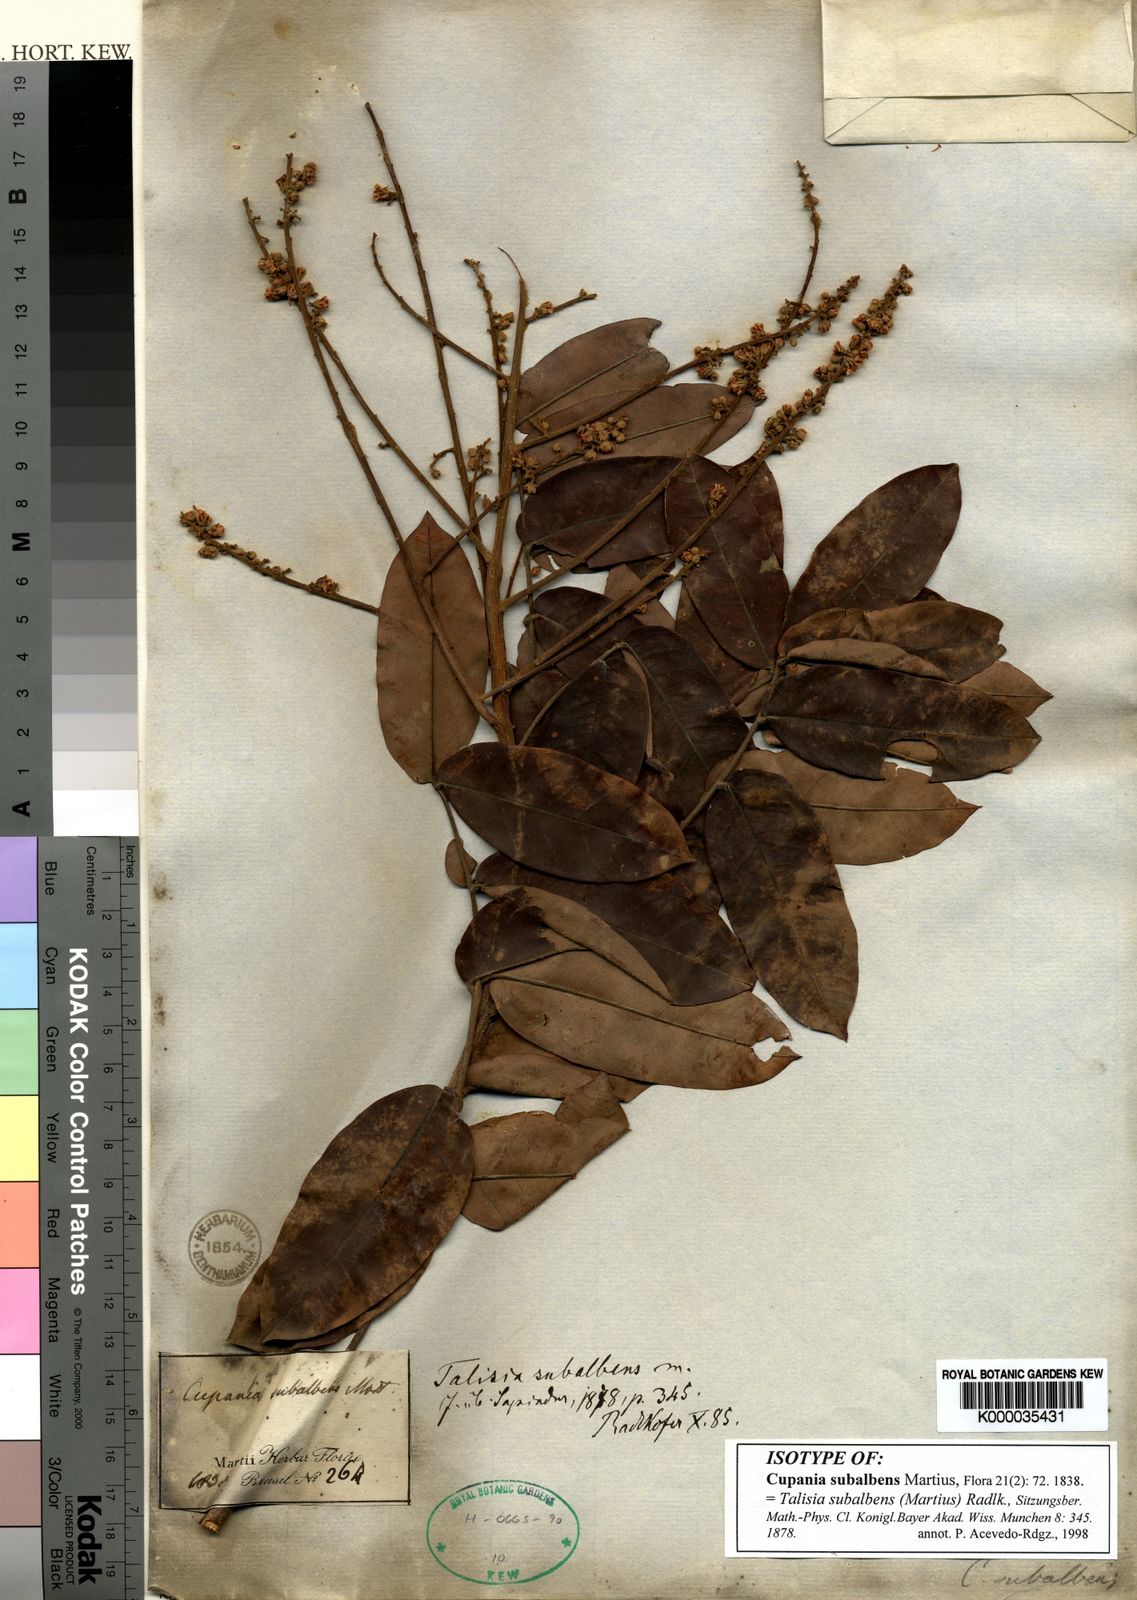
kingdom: Plantae
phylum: Tracheophyta
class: Magnoliopsida
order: Sapindales
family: Sapindaceae
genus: Talisia
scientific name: Talisia subalbens
